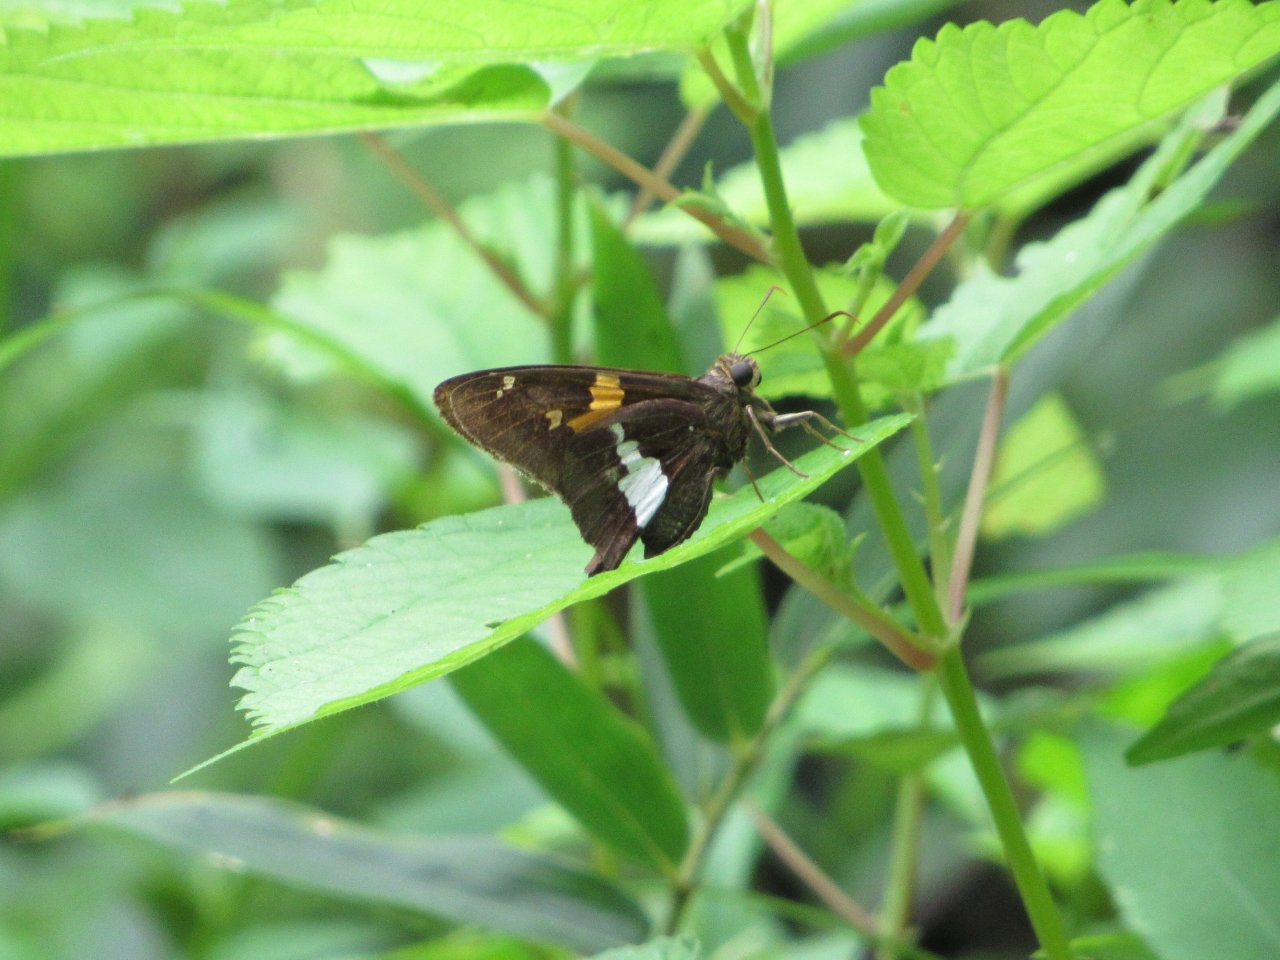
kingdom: Animalia
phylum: Arthropoda
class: Insecta
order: Lepidoptera
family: Hesperiidae
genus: Epargyreus
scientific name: Epargyreus clarus
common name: Silver-spotted Skipper
